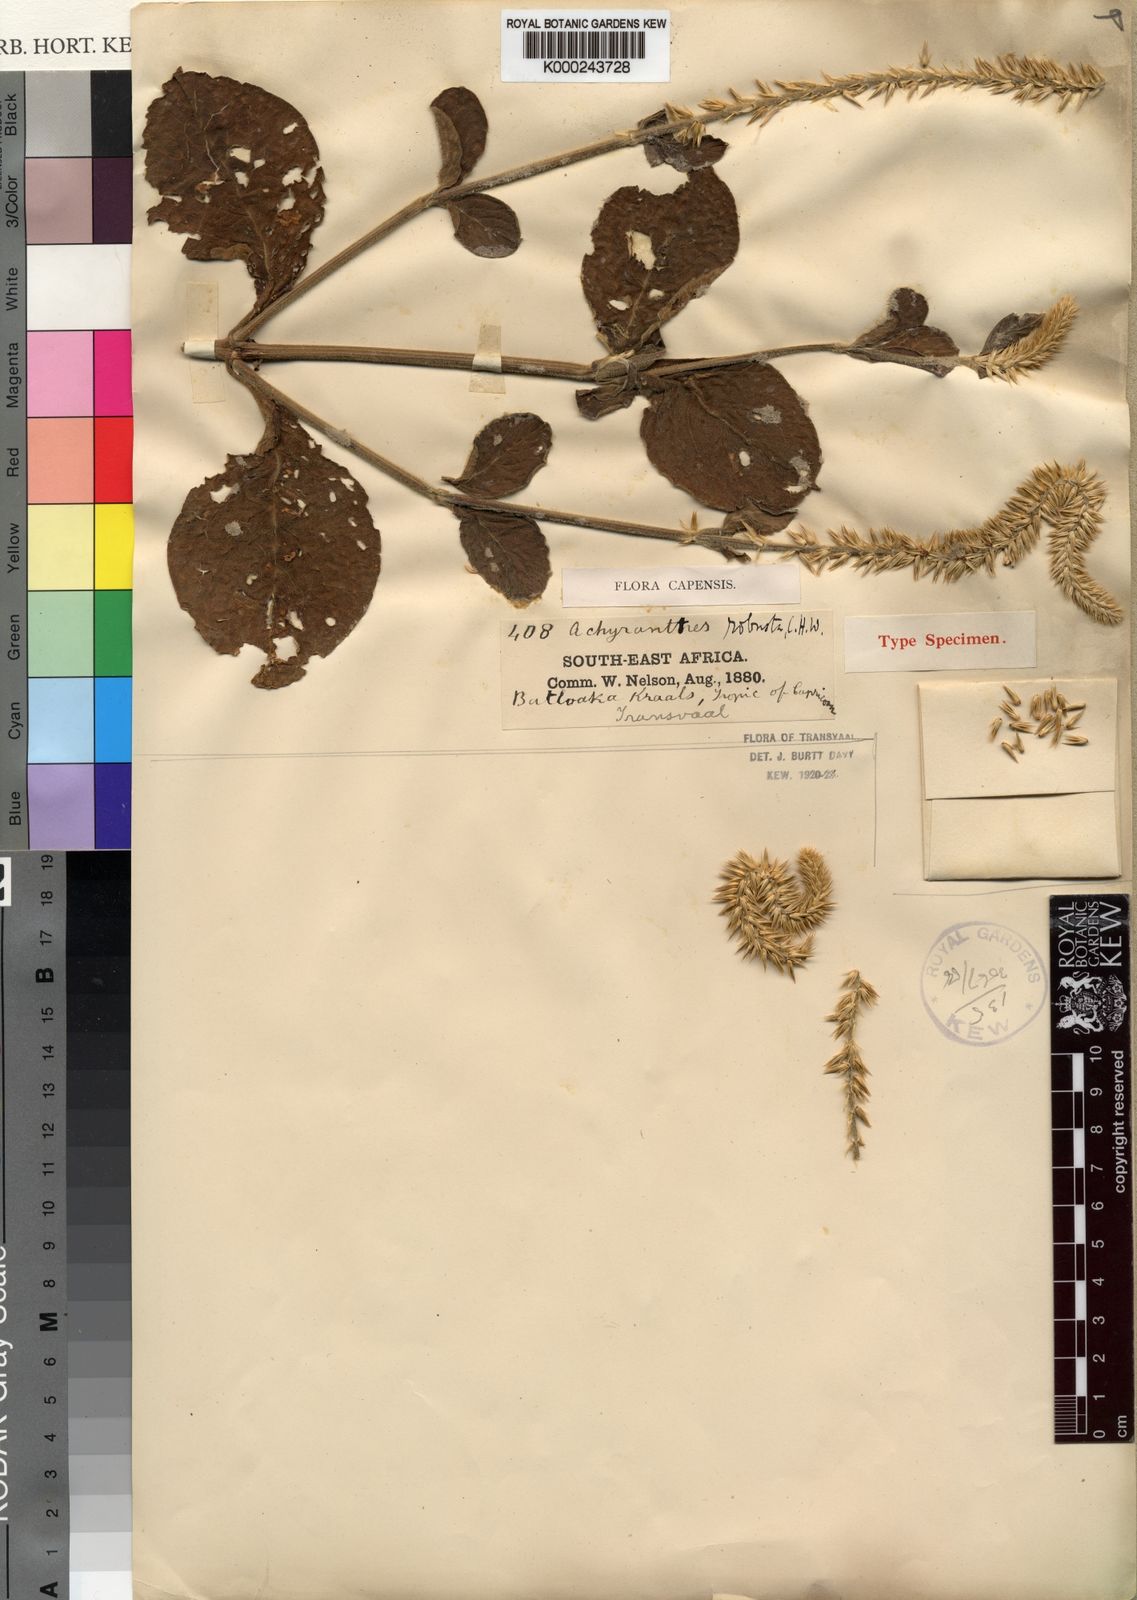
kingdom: Plantae
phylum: Tracheophyta
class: Magnoliopsida
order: Caryophyllales
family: Amaranthaceae
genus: Achyranthes
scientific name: Achyranthes aspera
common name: Devil's horsewhip
